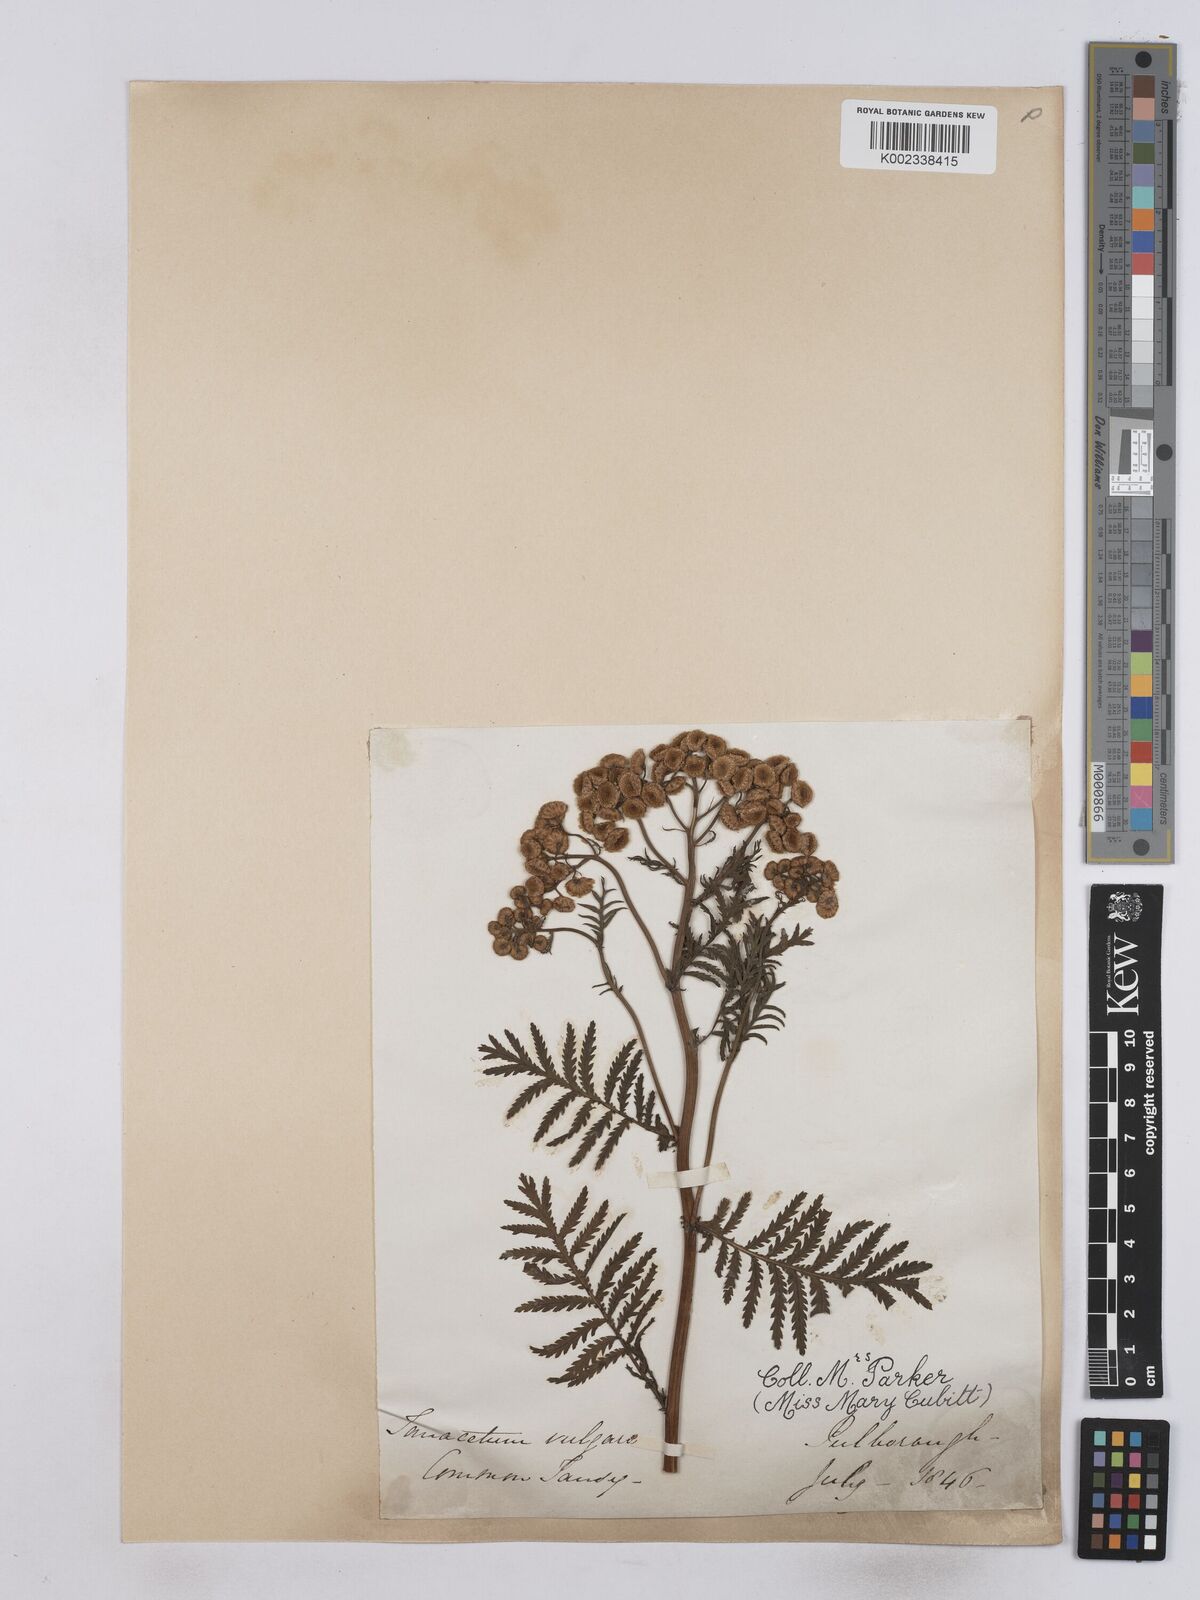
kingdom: Plantae
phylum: Tracheophyta
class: Magnoliopsida
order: Asterales
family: Asteraceae
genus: Tanacetum
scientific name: Tanacetum vulgare
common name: Common tansy
